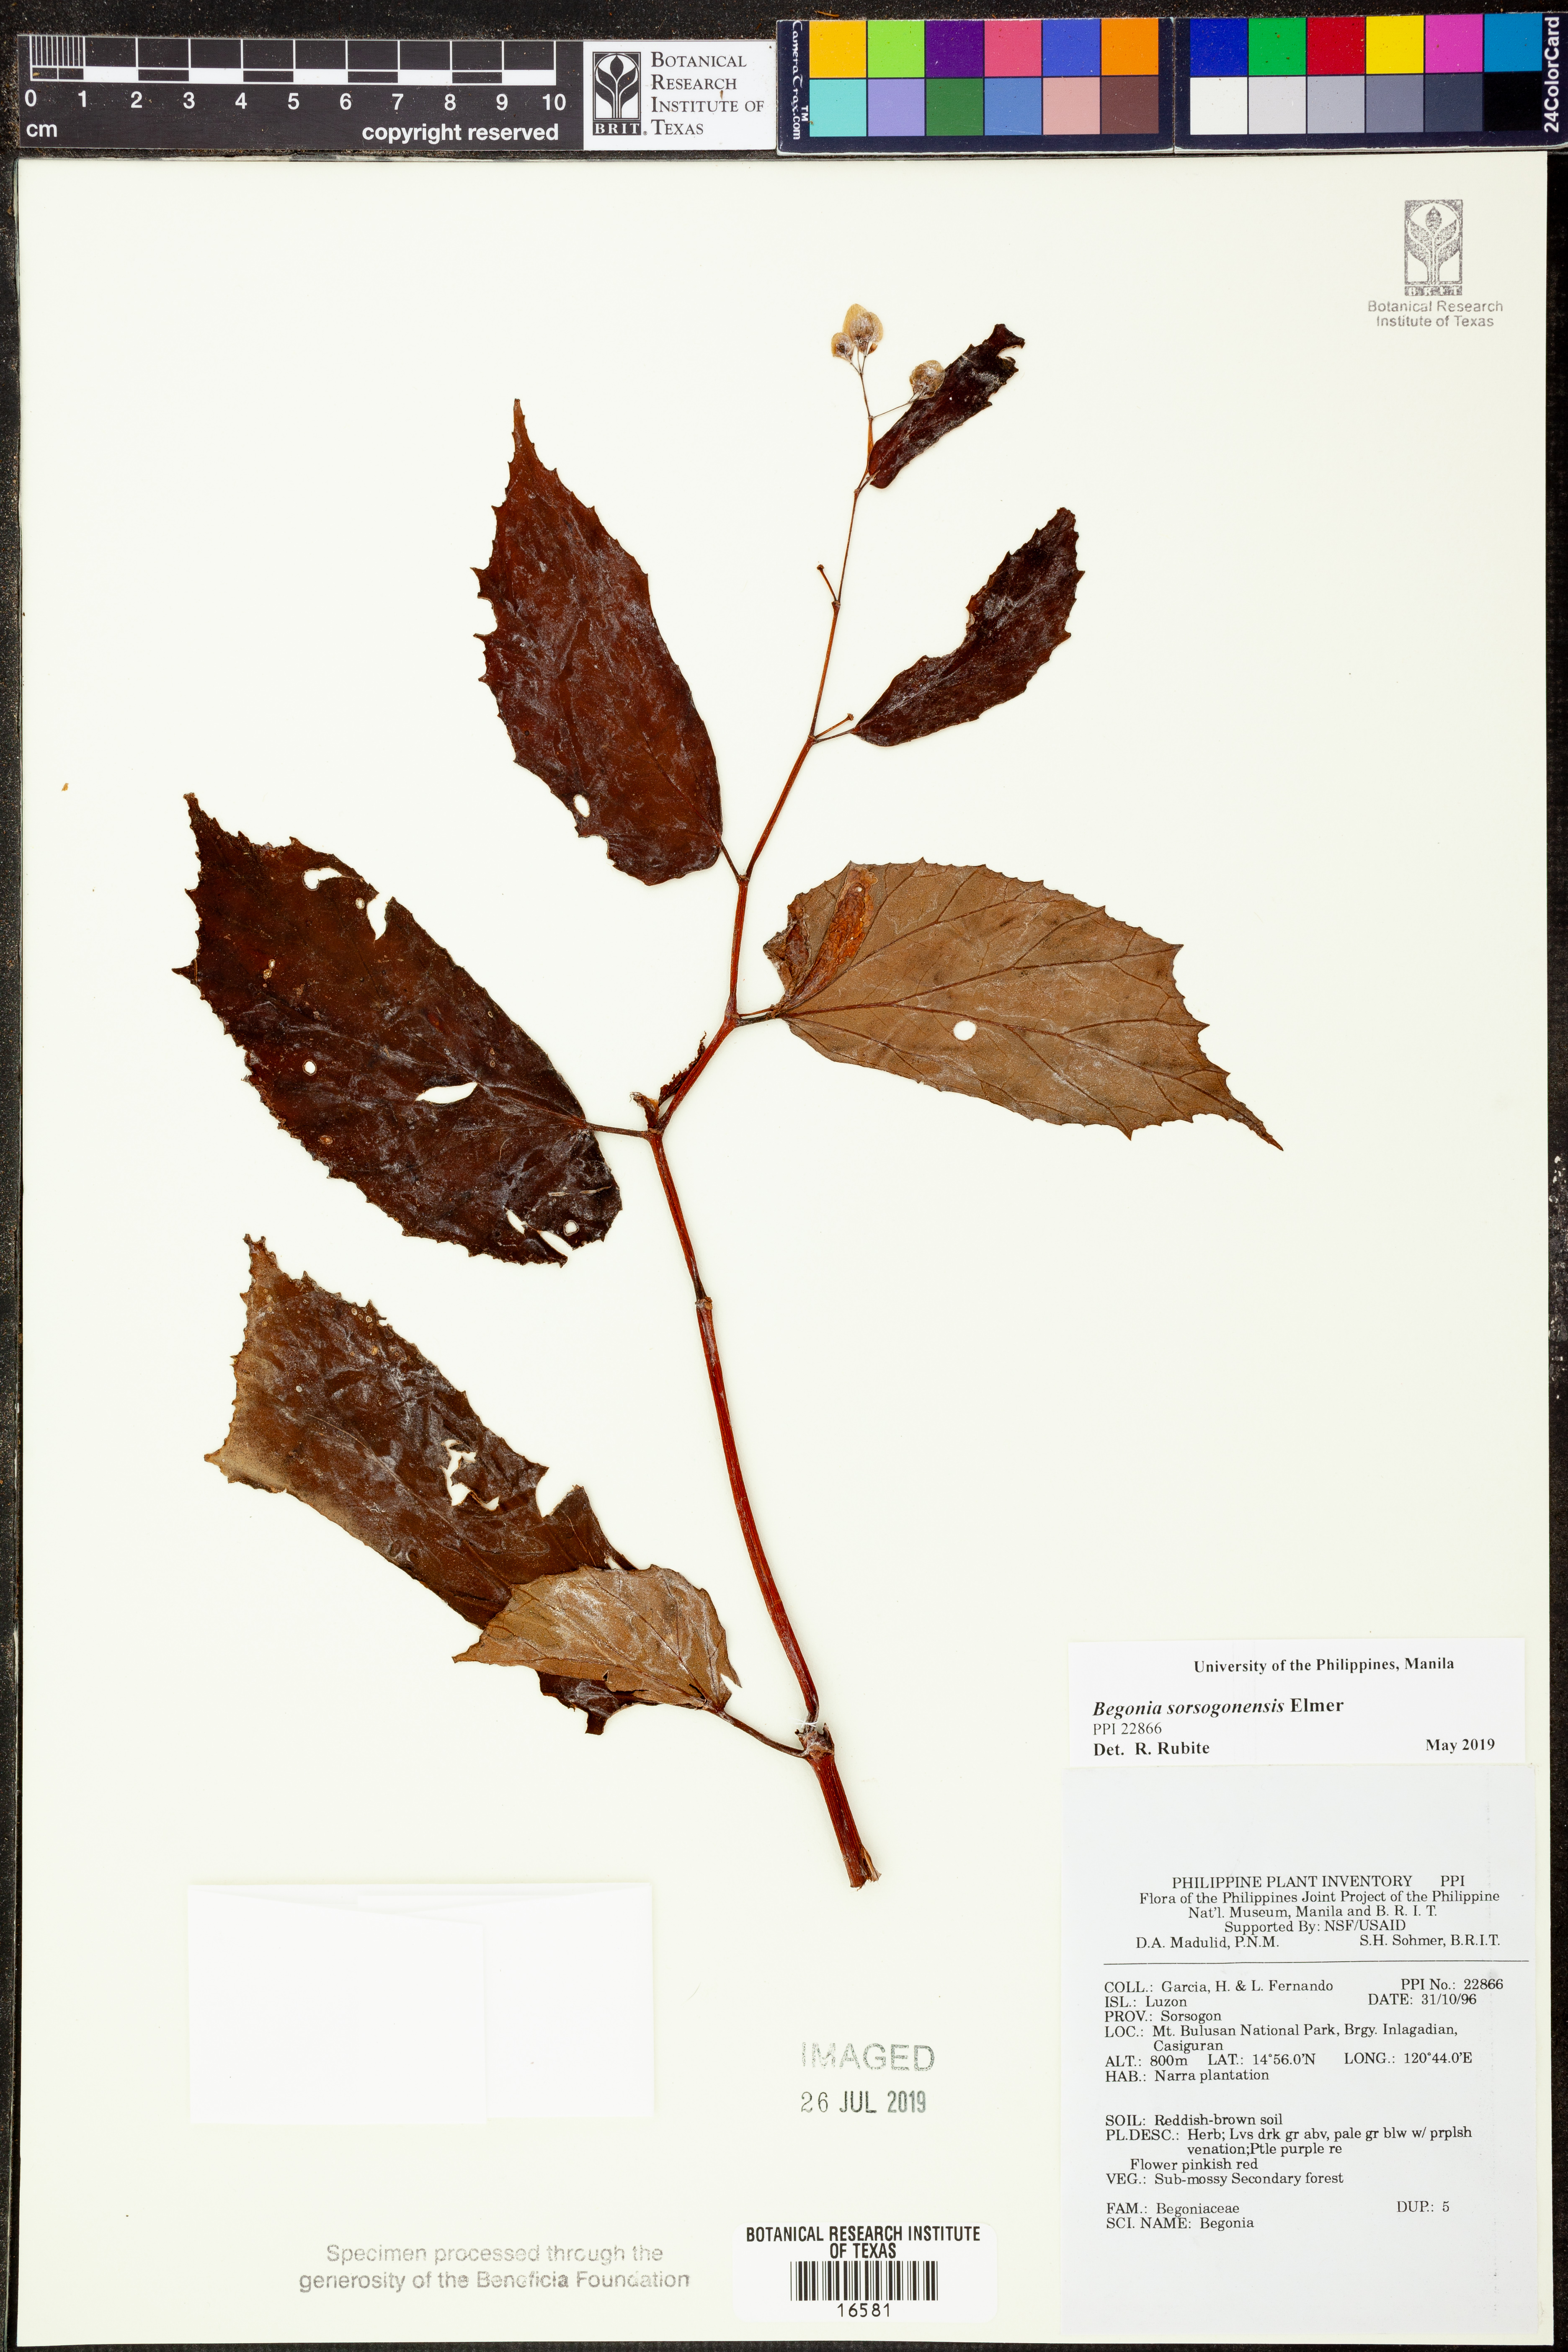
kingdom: Plantae
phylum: Tracheophyta
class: Magnoliopsida
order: Cucurbitales
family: Begoniaceae
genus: Begonia
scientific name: Begonia
